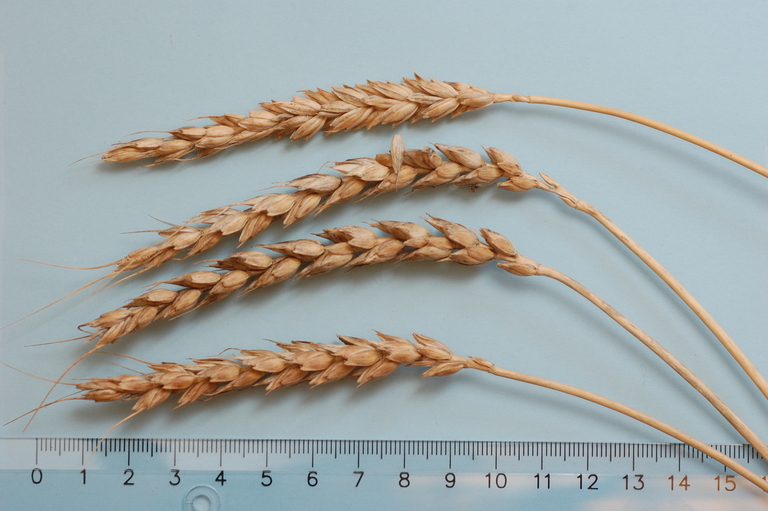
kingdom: Plantae
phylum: Tracheophyta
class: Liliopsida
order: Poales
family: Poaceae
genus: Triticum
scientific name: Triticum aestivum
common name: Common wheat
